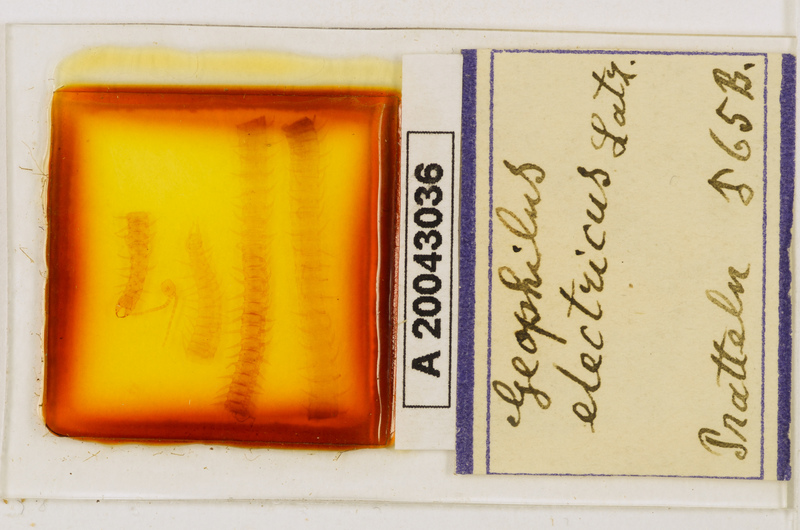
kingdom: Animalia
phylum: Arthropoda
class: Chilopoda
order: Geophilomorpha
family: Geophilidae
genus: Geophilus
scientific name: Geophilus electricus
